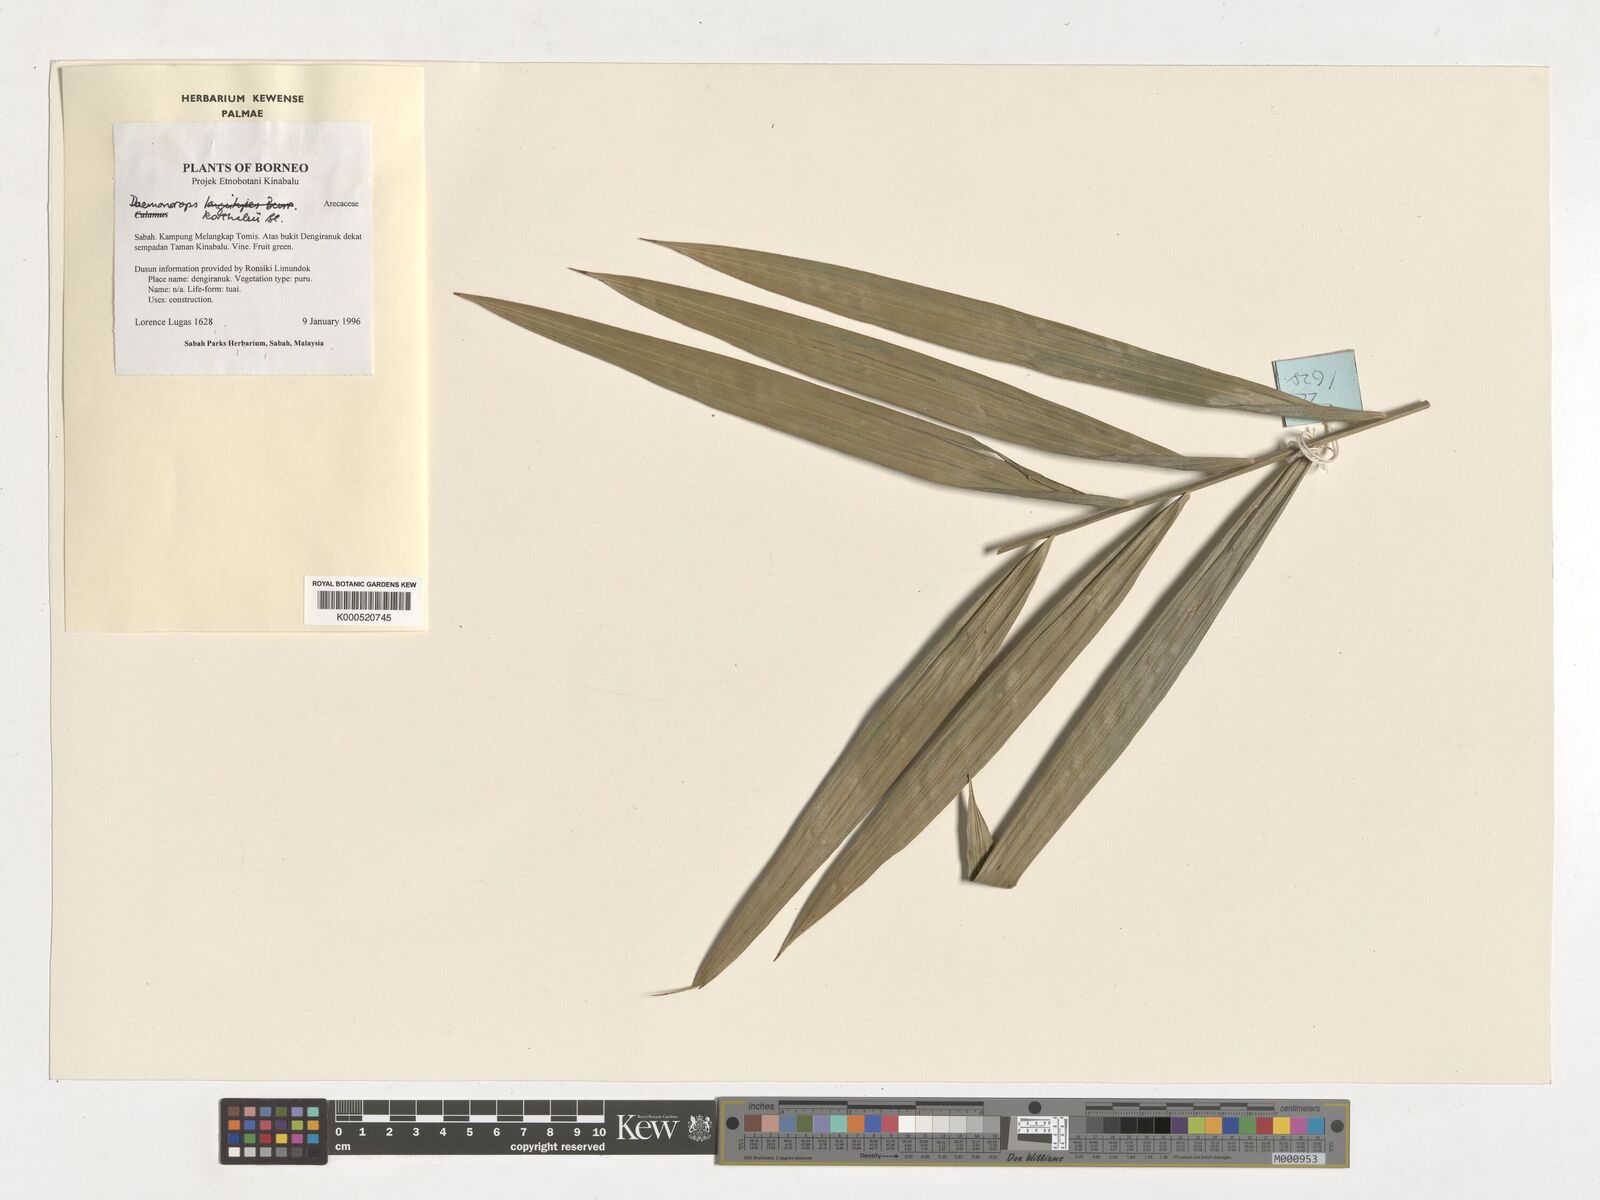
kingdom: Plantae
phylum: Tracheophyta
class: Liliopsida
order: Arecales
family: Arecaceae
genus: Calamus
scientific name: Calamus hirsutus
